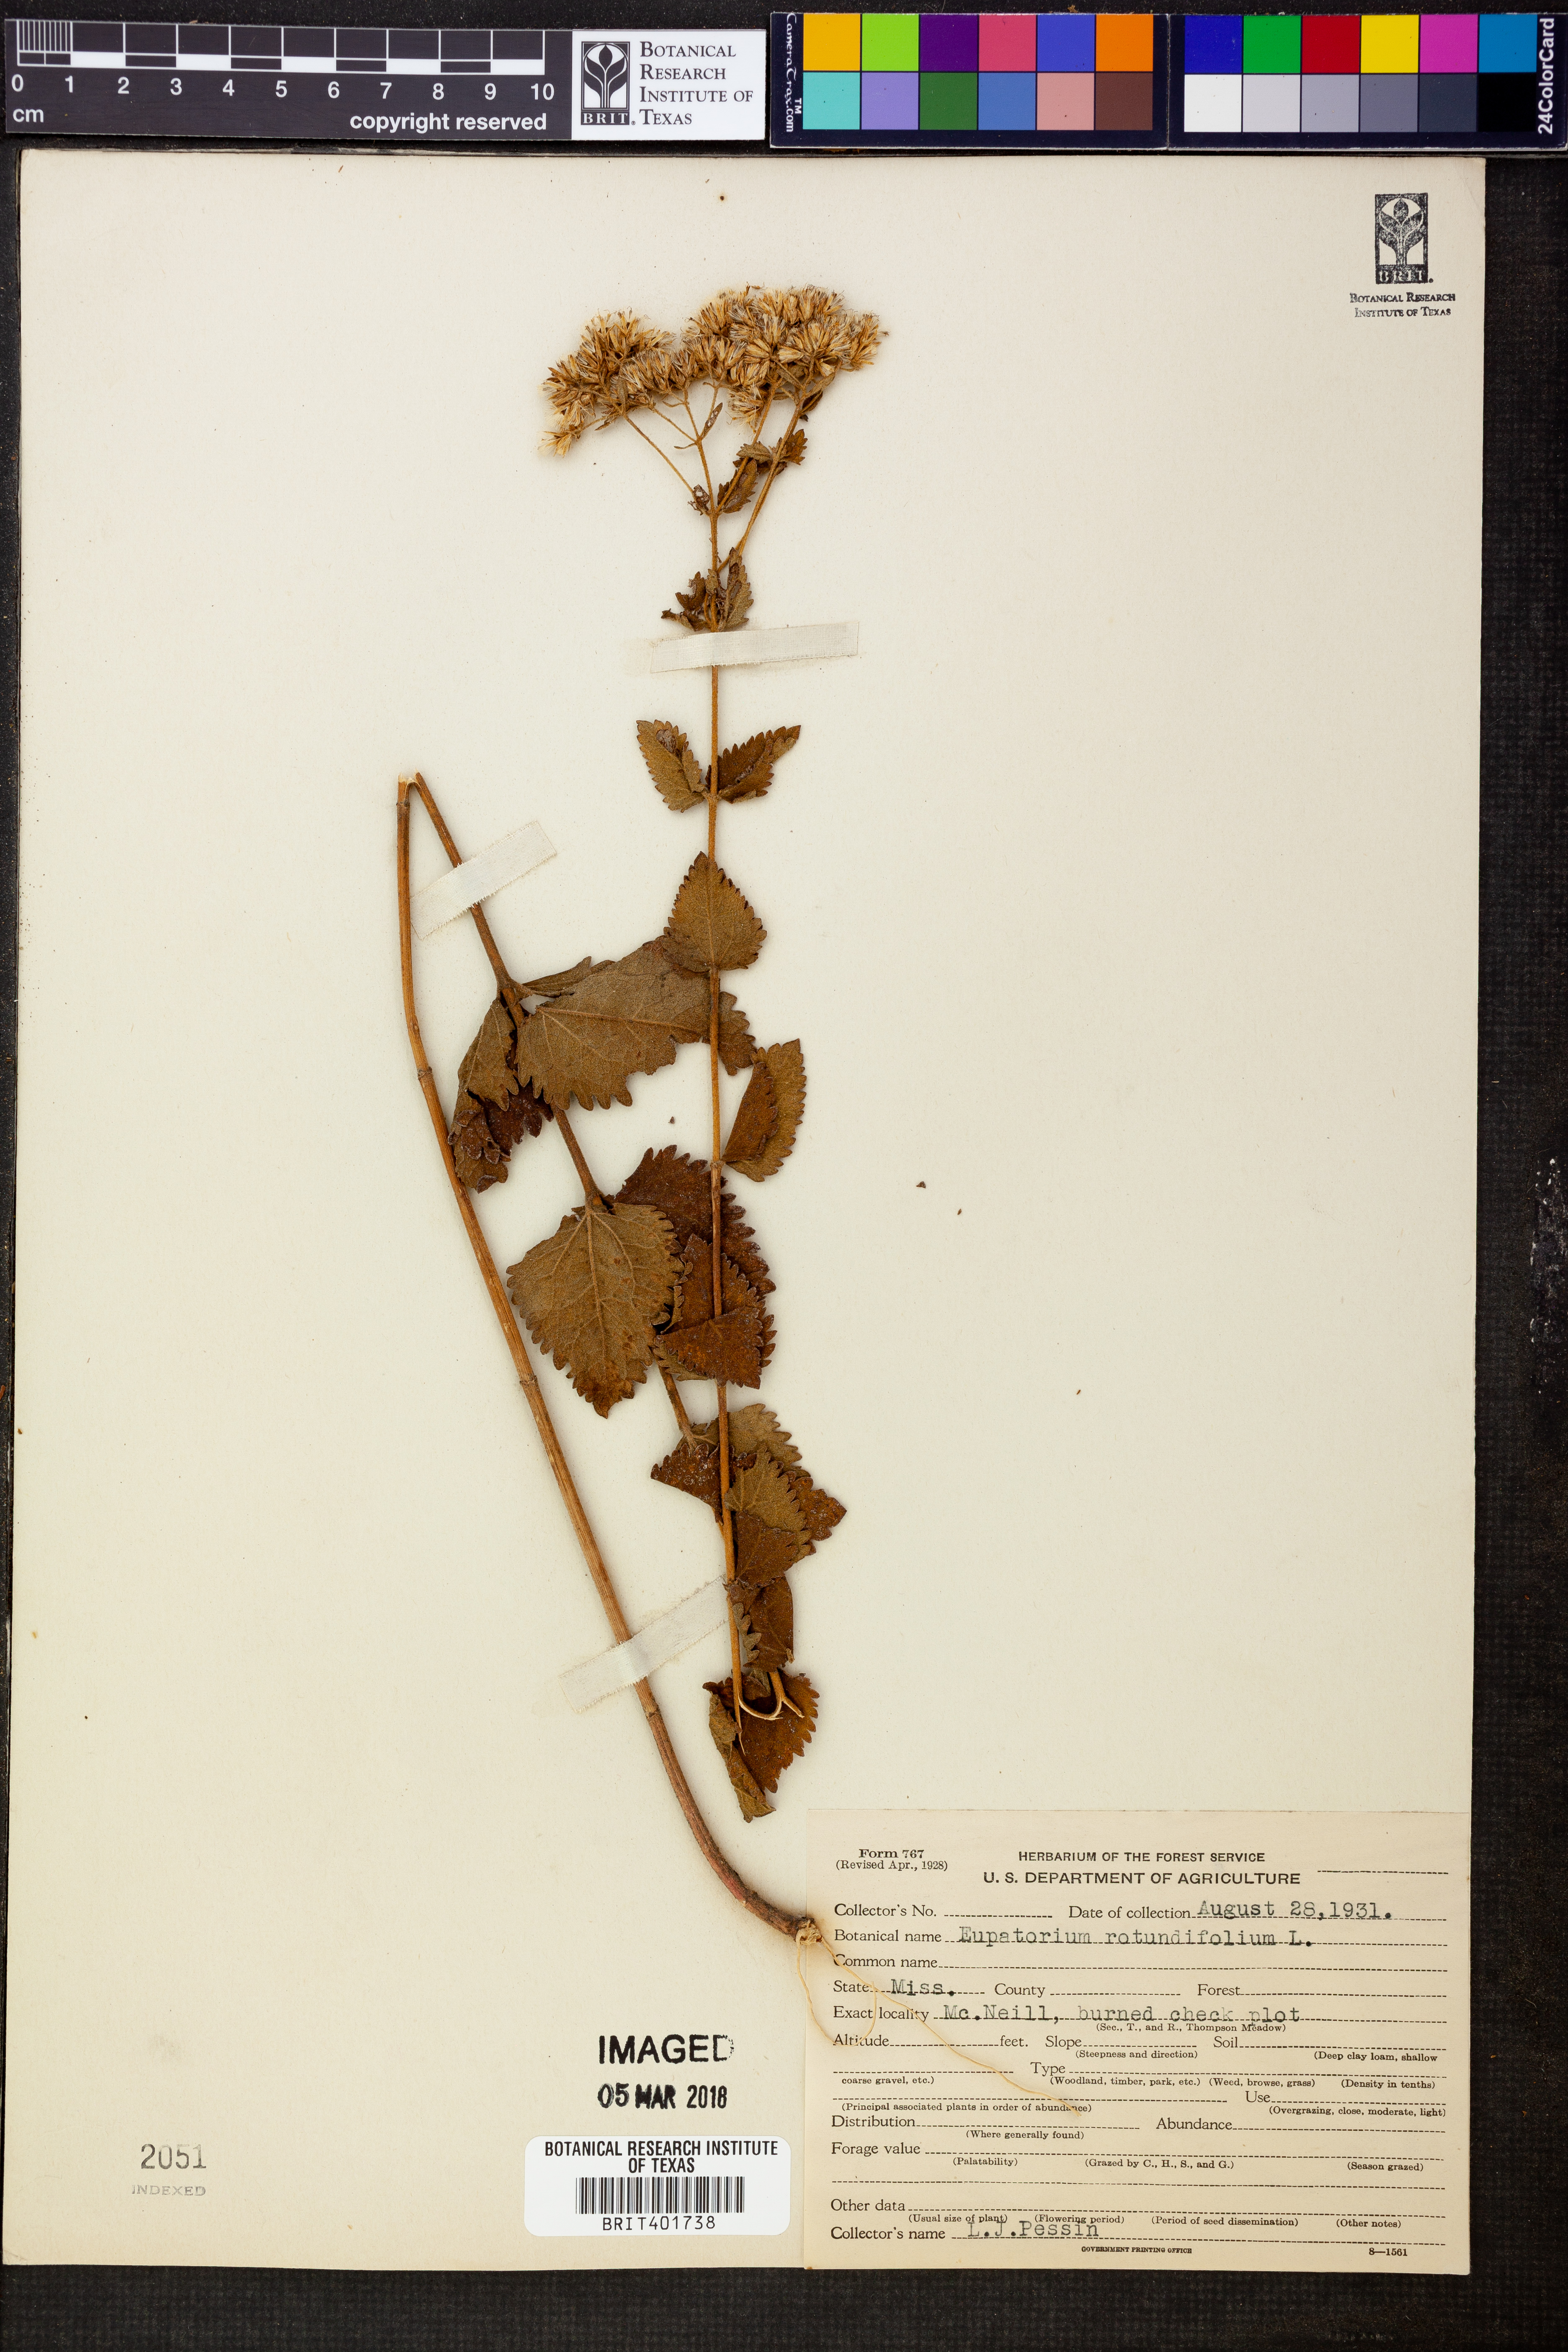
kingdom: Plantae
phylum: Tracheophyta
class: Magnoliopsida
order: Asterales
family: Asteraceae
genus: Eupatorium
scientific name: Eupatorium rotundifolium
